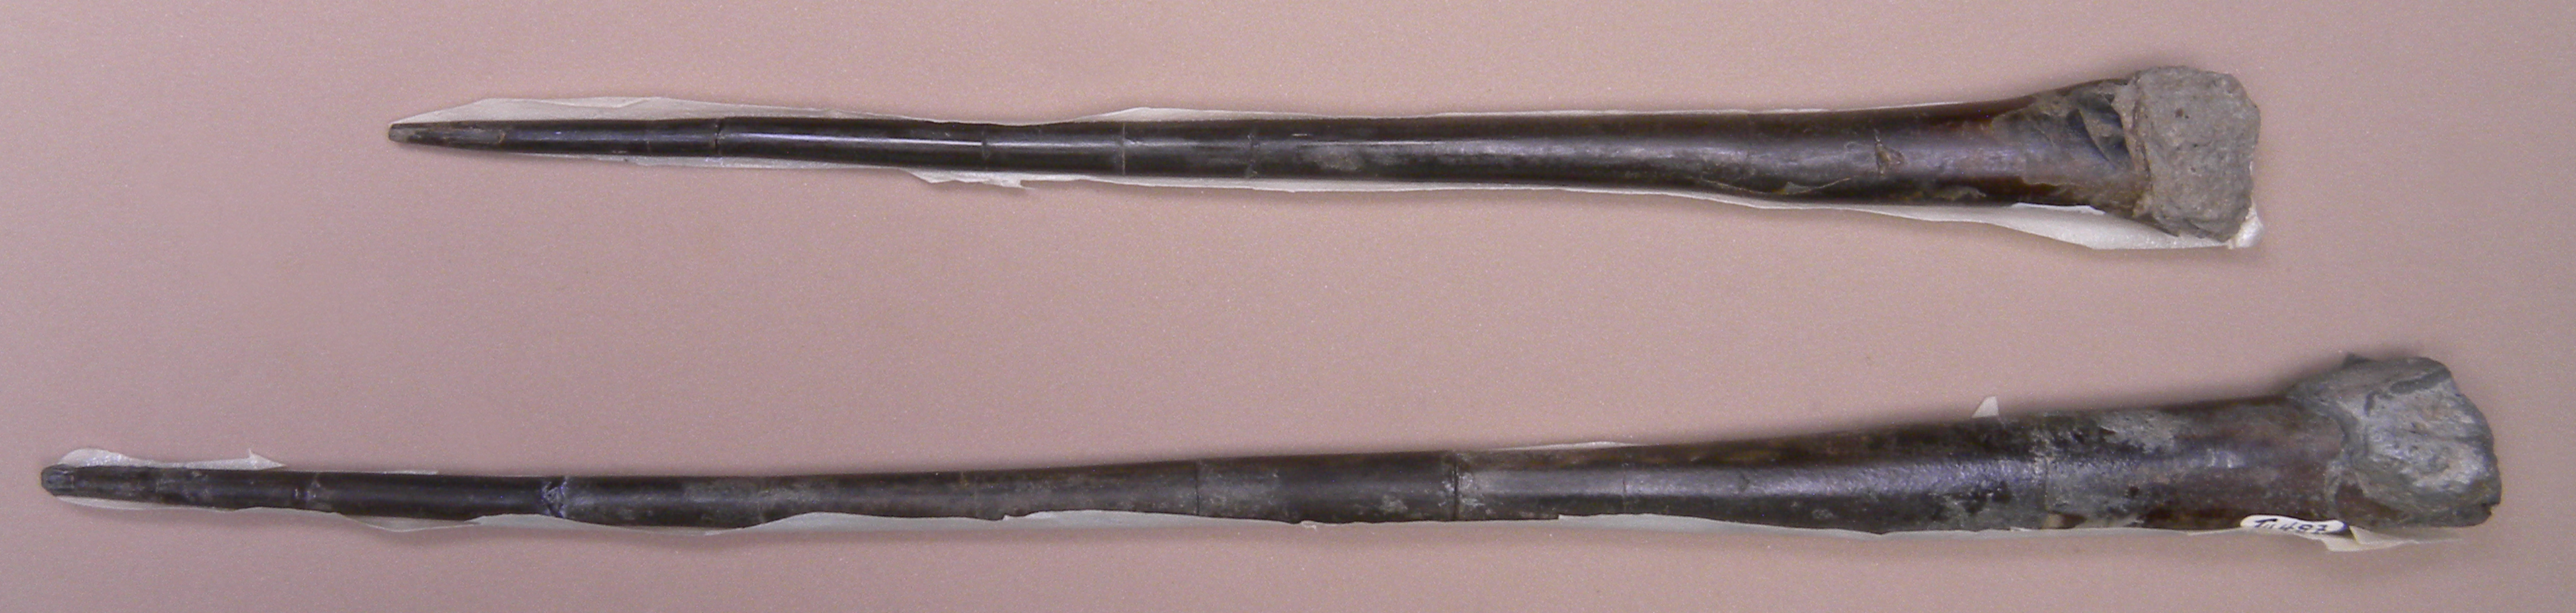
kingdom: Animalia
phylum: Mollusca
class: Cephalopoda
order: Belemnitida
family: Megateuthididae
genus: Dactyloteuthis
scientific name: Dactyloteuthis semistriata
